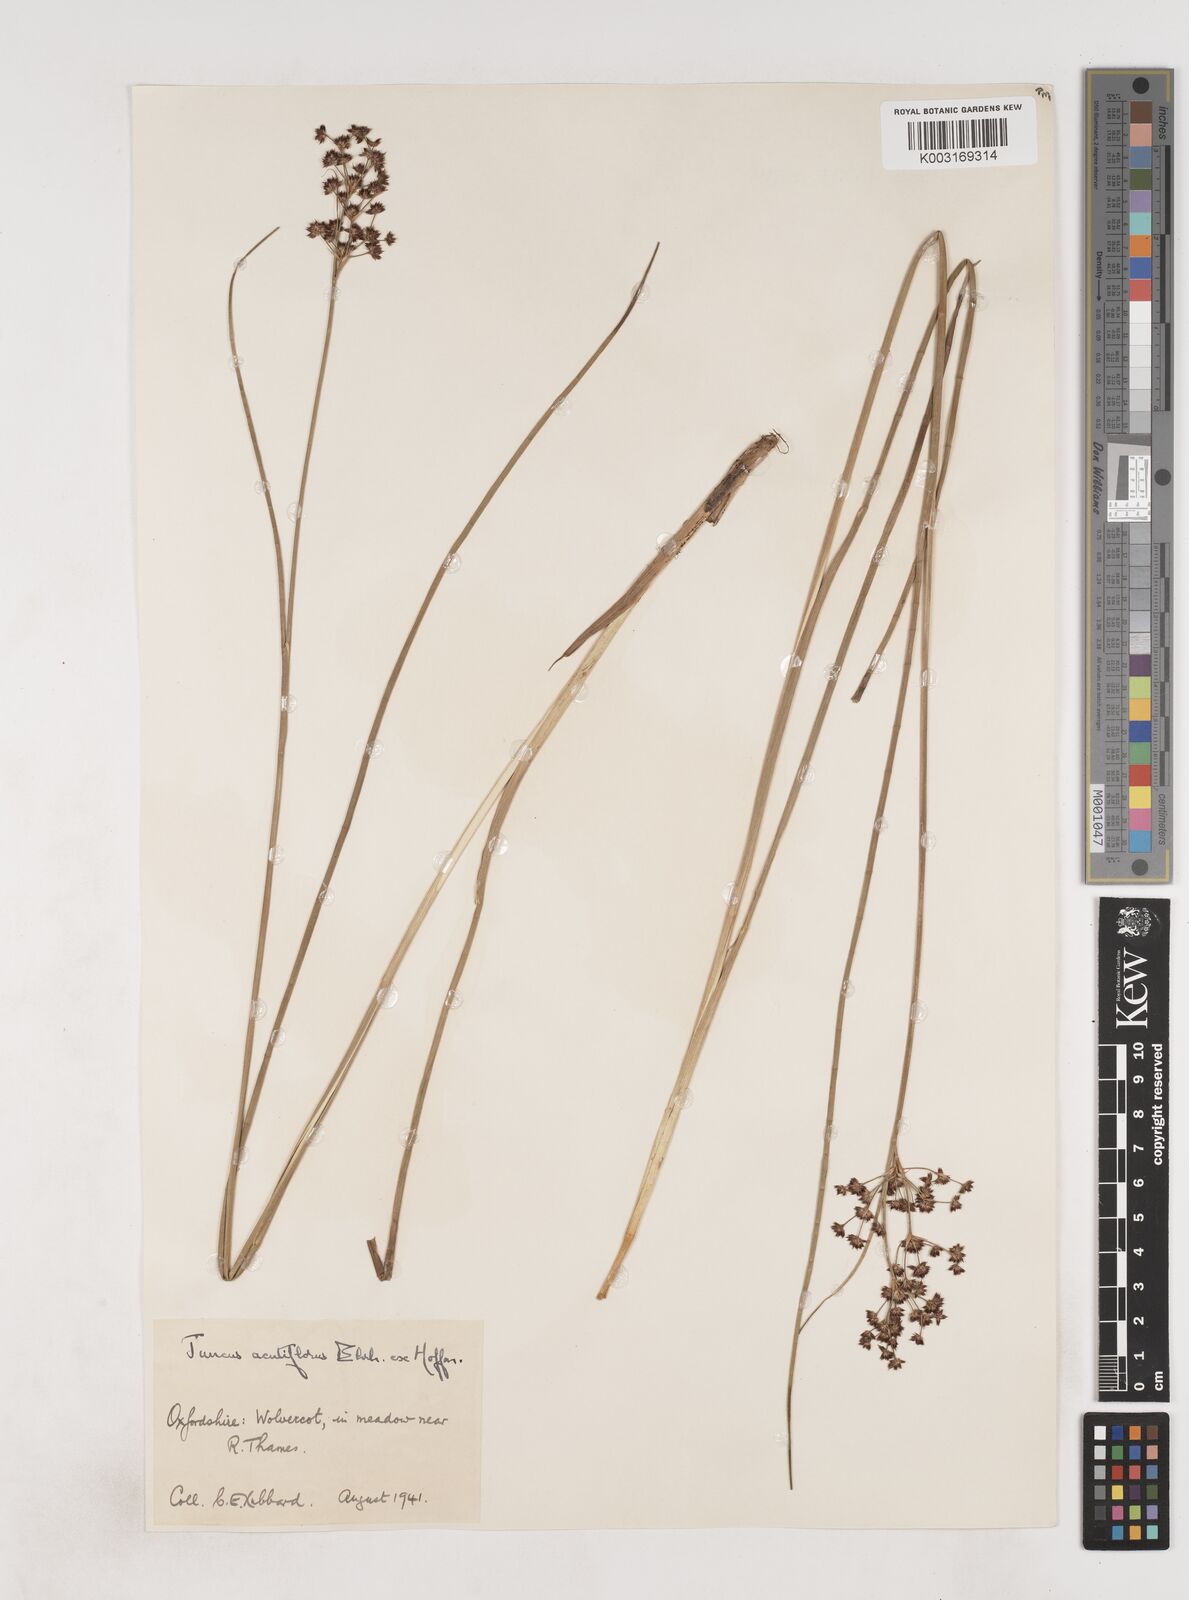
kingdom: Plantae
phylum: Tracheophyta
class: Liliopsida
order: Poales
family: Juncaceae
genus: Juncus
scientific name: Juncus acutiflorus
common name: Sharp-flowered rush
